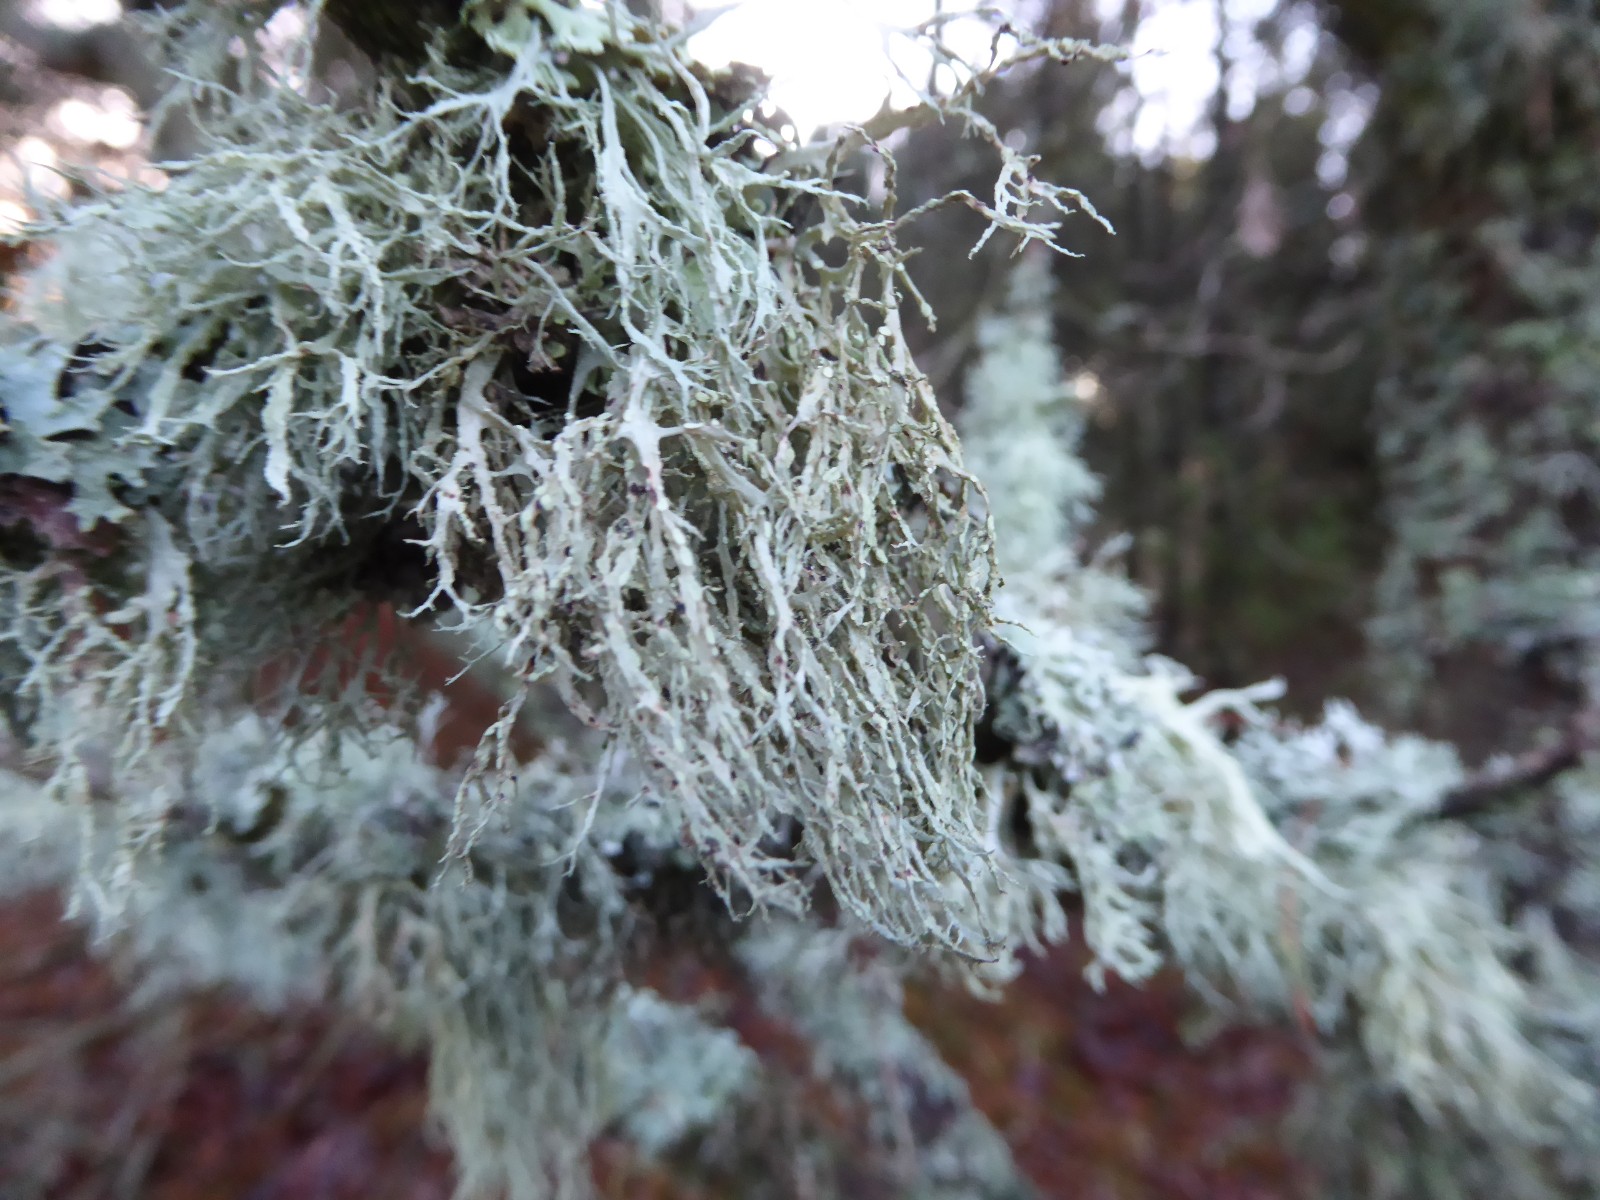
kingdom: Fungi
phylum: Ascomycota
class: Lecanoromycetes
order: Lecanorales
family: Ramalinaceae
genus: Ramalina
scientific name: Ramalina farinacea
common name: melet grenlav
